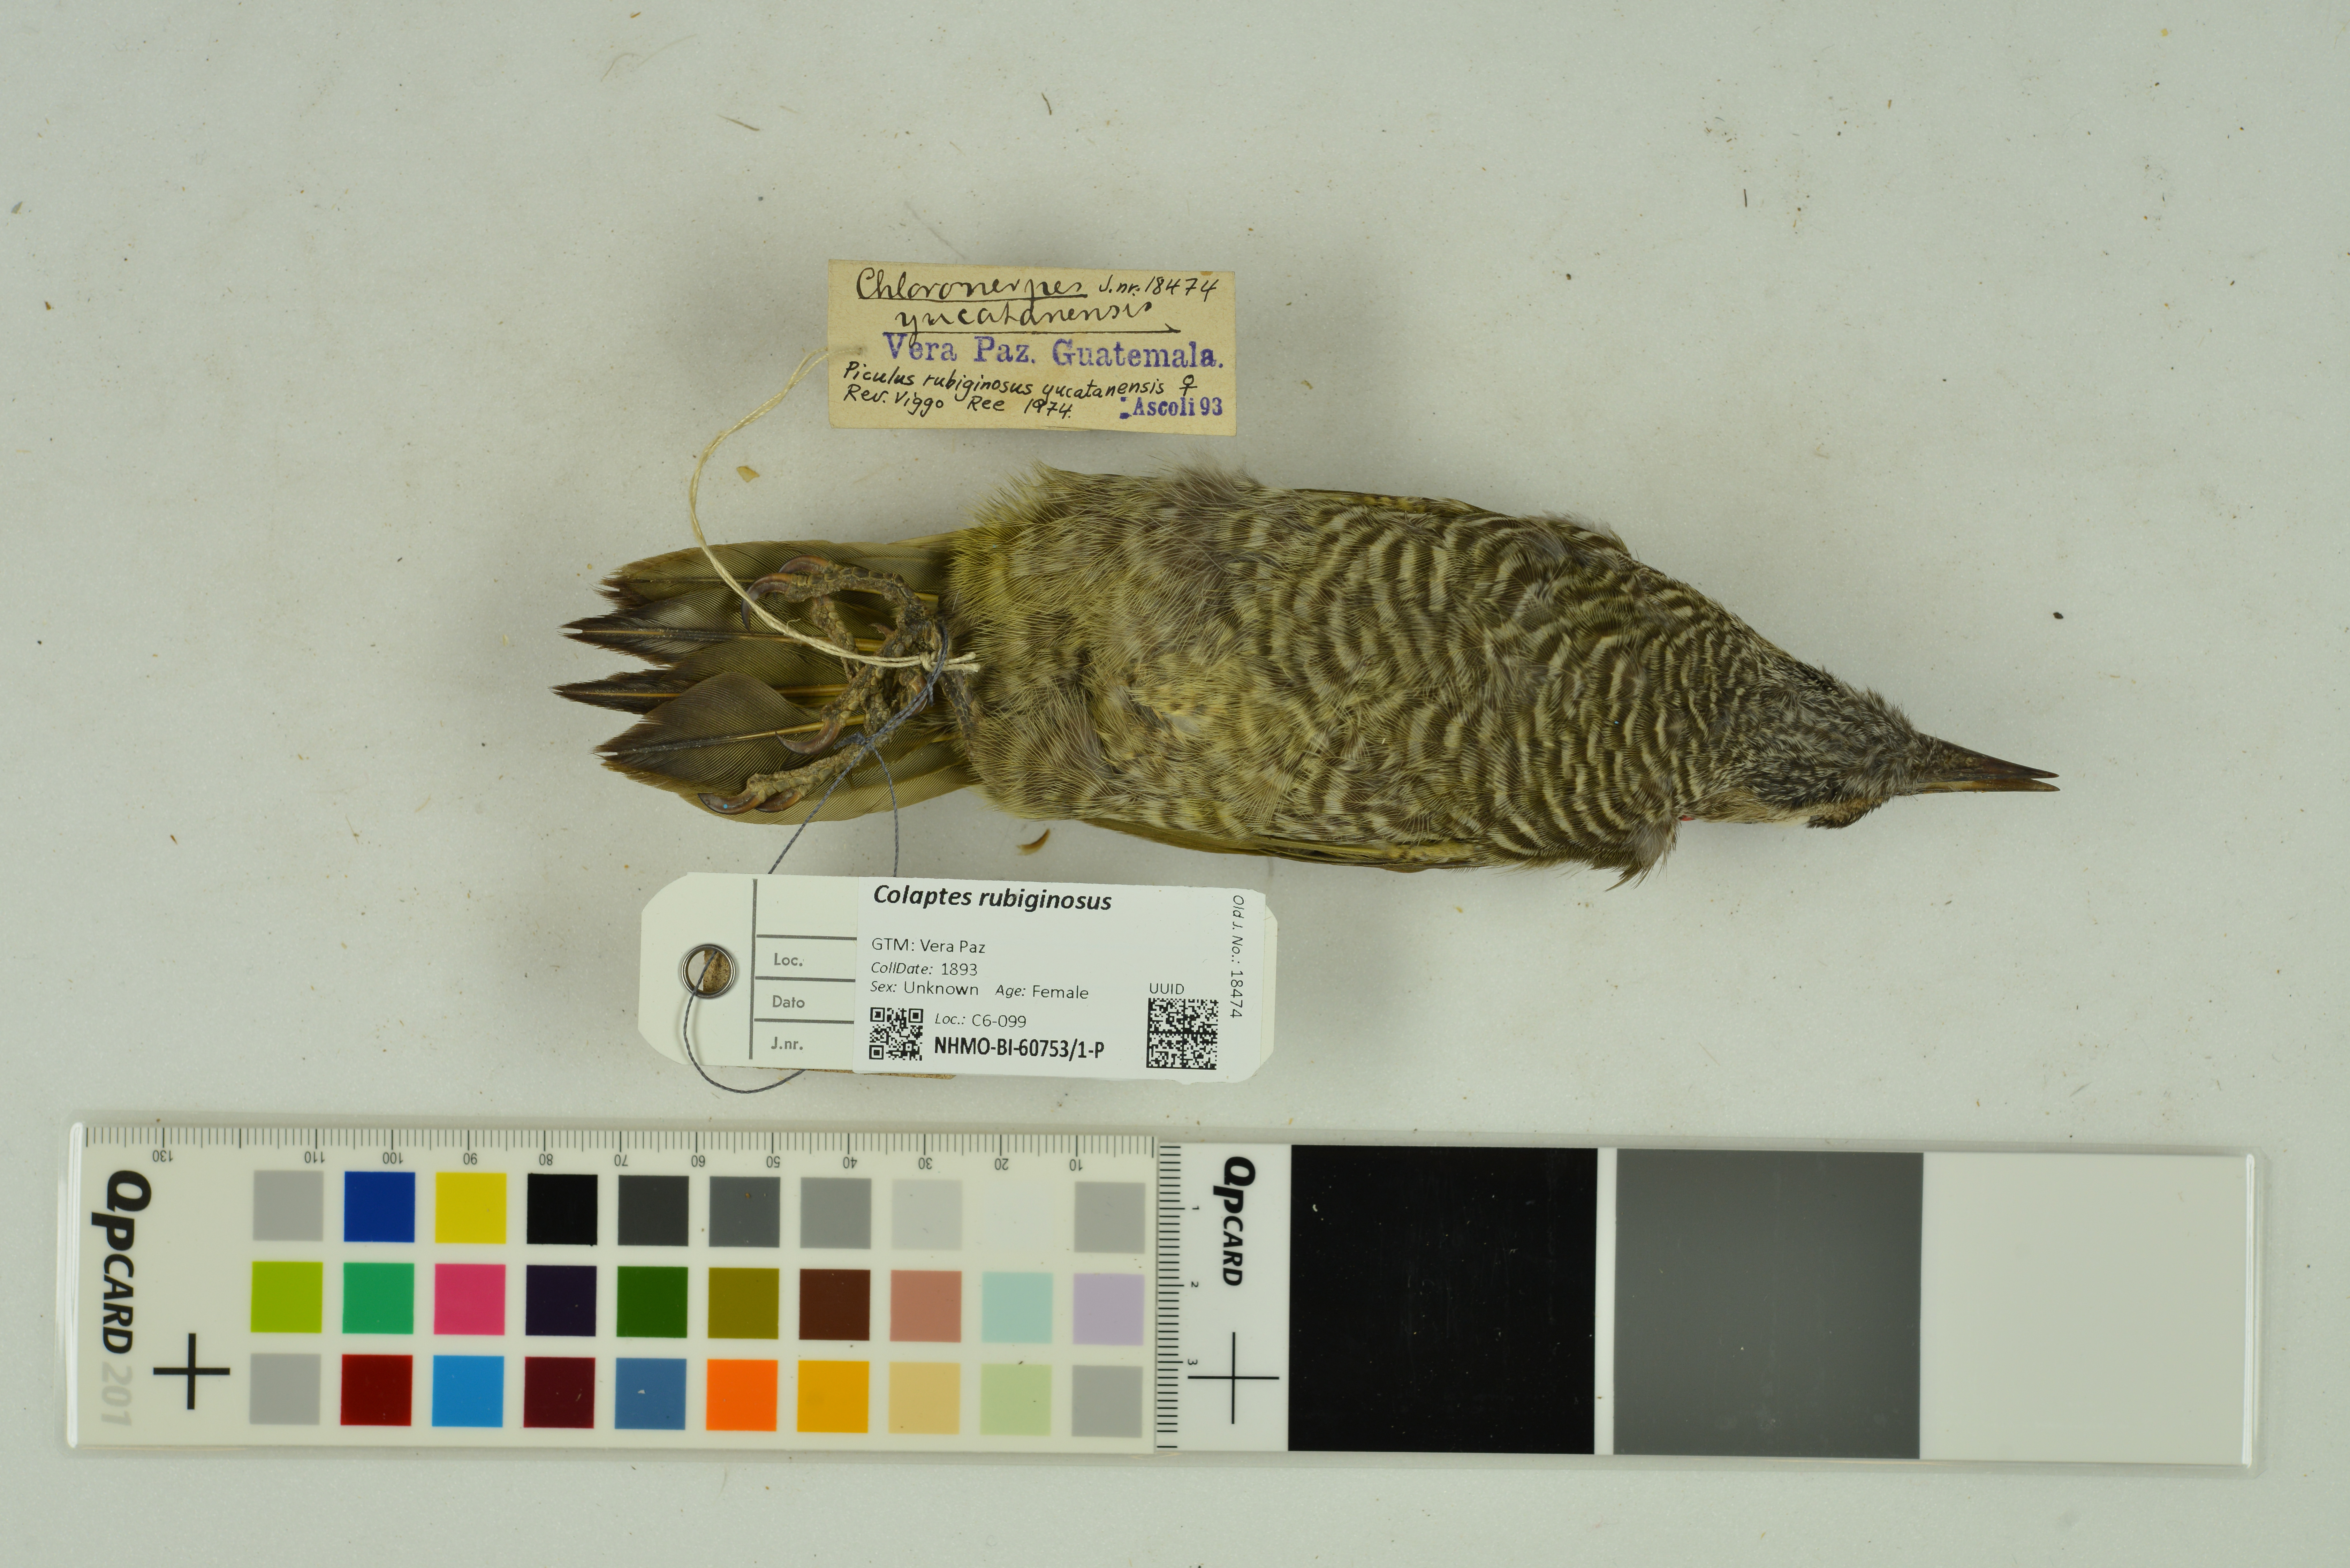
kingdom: Animalia
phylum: Chordata
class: Aves
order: Piciformes
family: Picidae
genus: Colaptes
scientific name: Colaptes rubiginosus
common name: Golden-olive woodpecker
